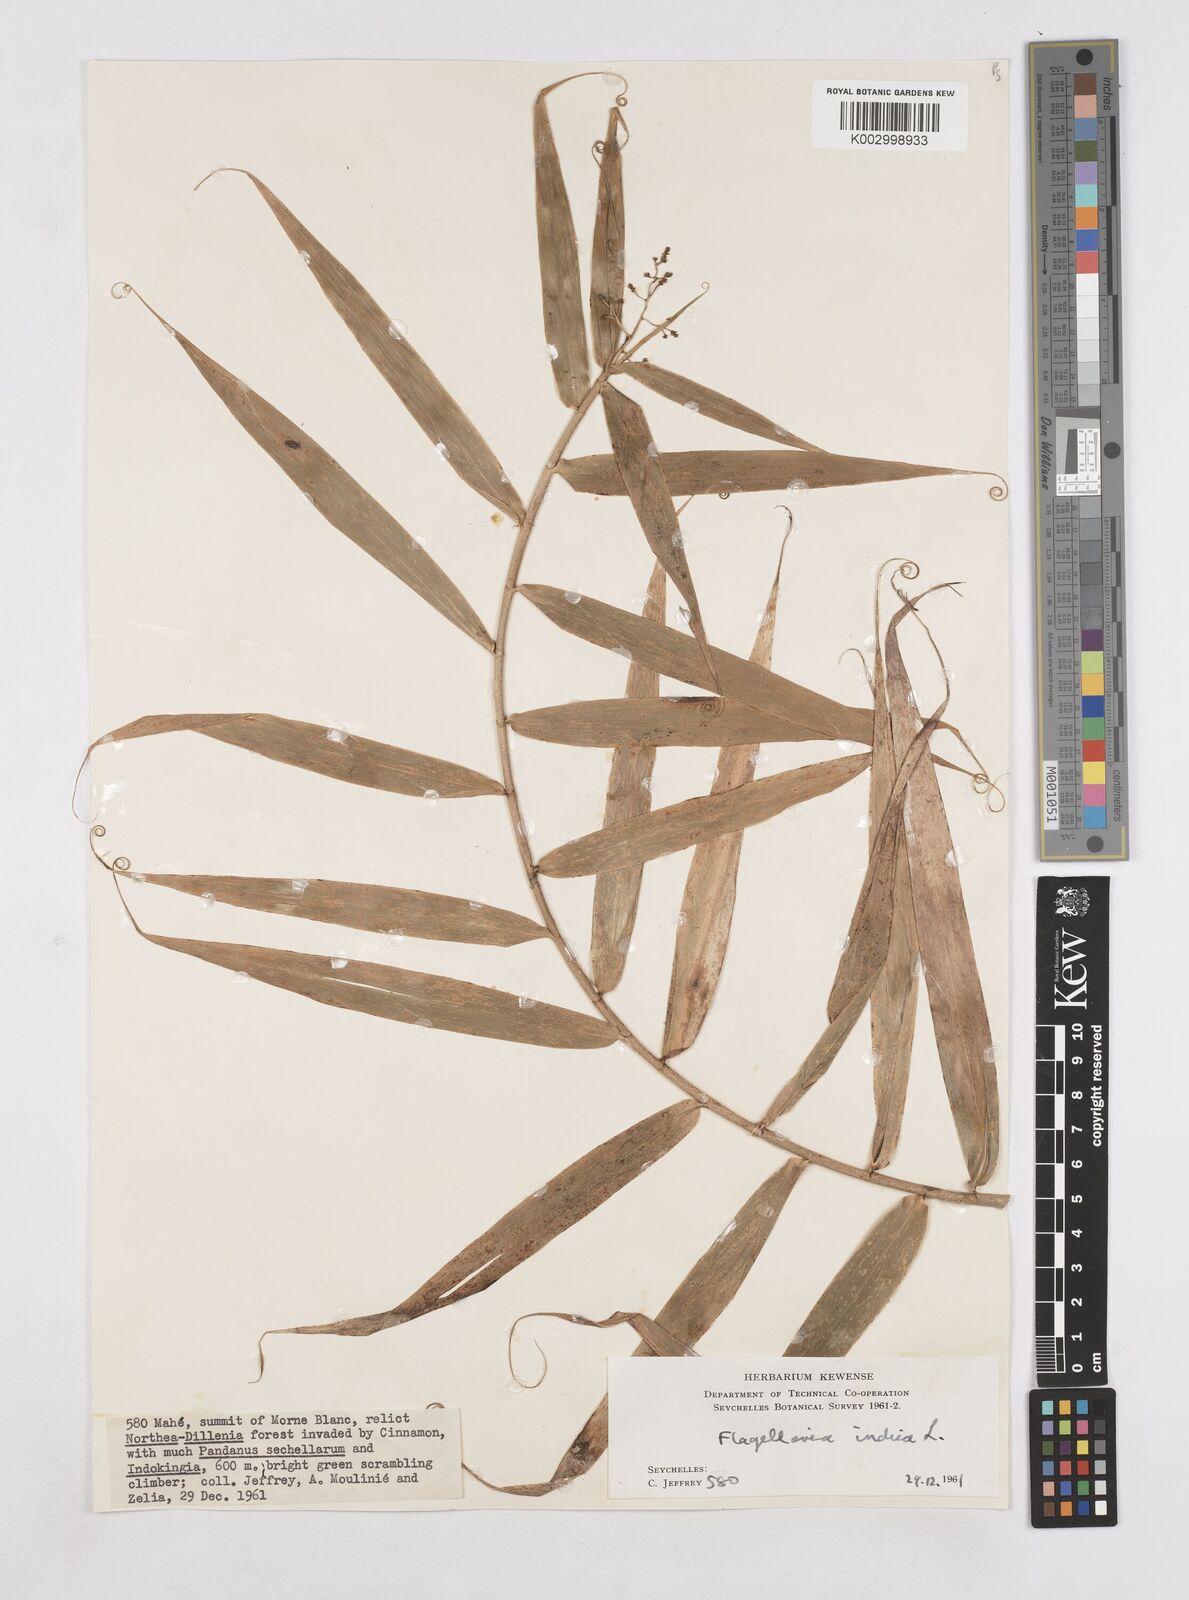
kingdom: Plantae
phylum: Tracheophyta
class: Liliopsida
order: Poales
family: Flagellariaceae
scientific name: Flagellariaceae
